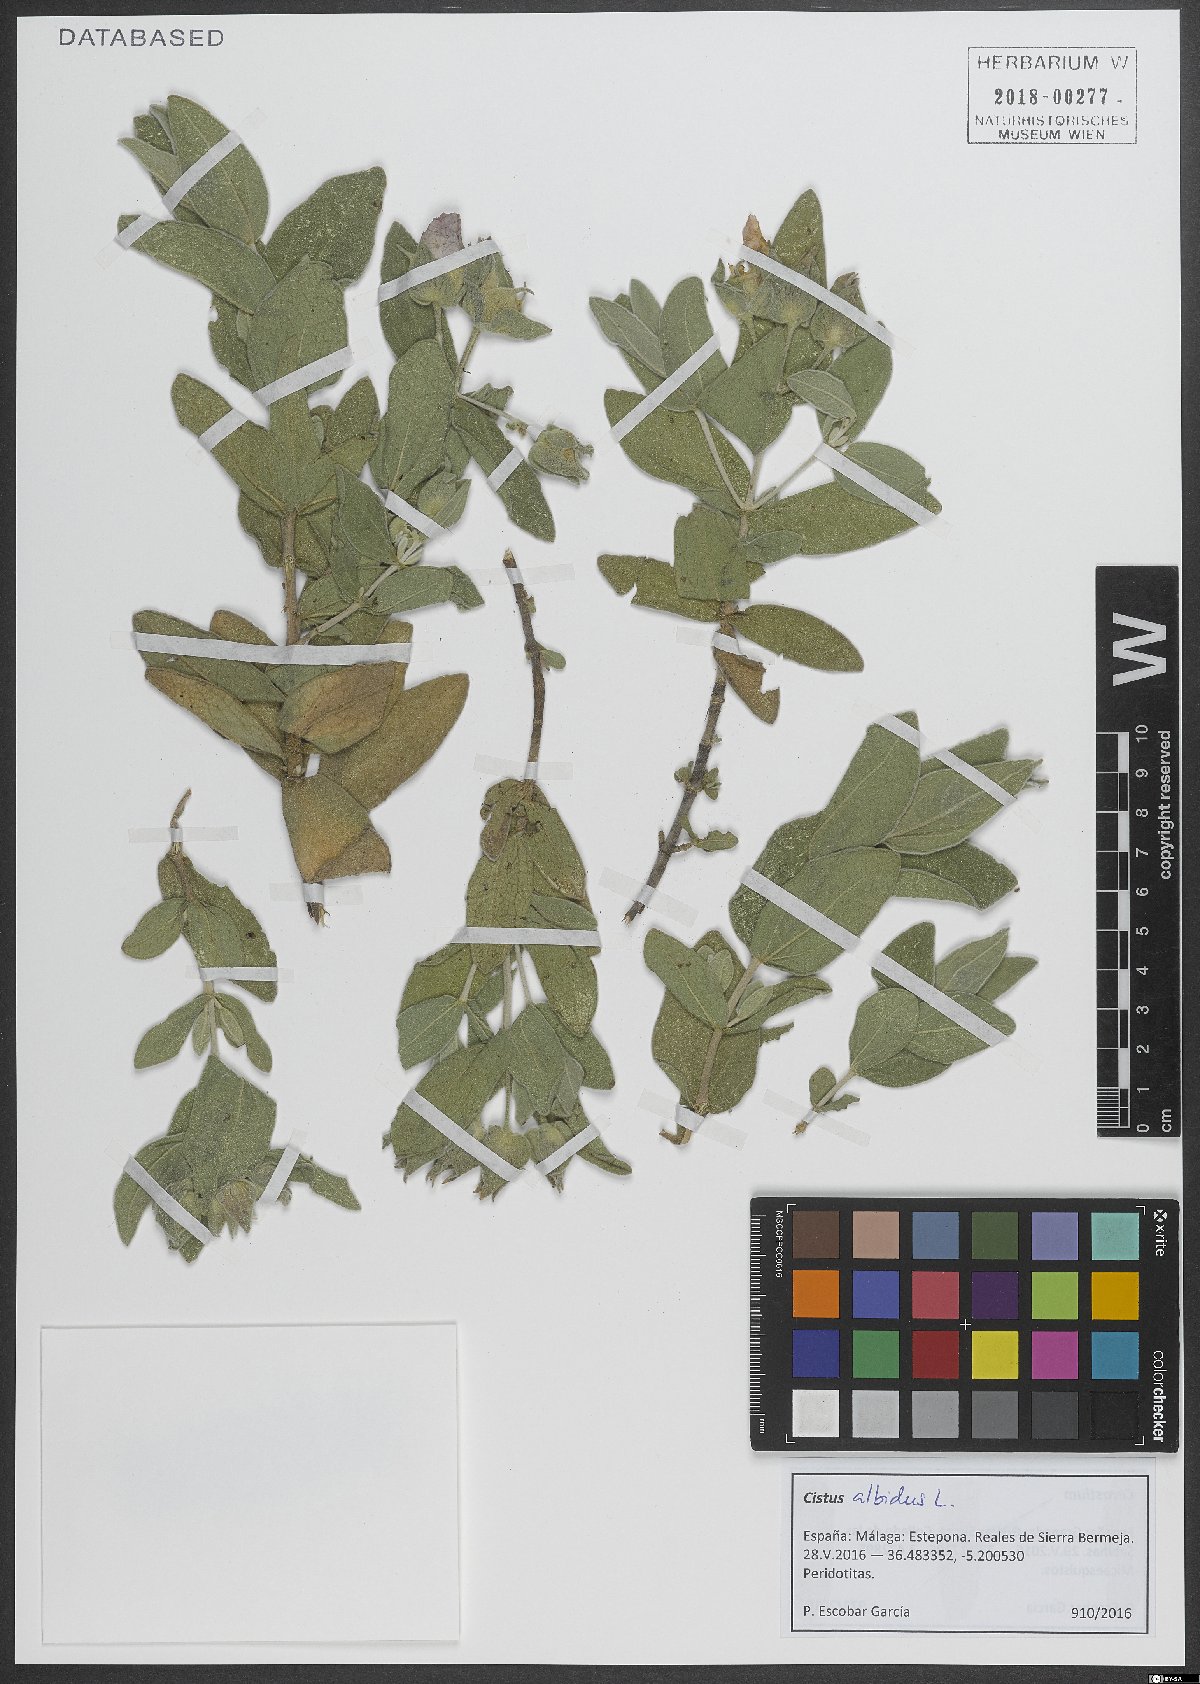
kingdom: Plantae
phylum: Tracheophyta
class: Magnoliopsida
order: Malvales
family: Cistaceae
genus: Cistus
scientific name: Cistus albidus
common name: White-leaf rock-rose
